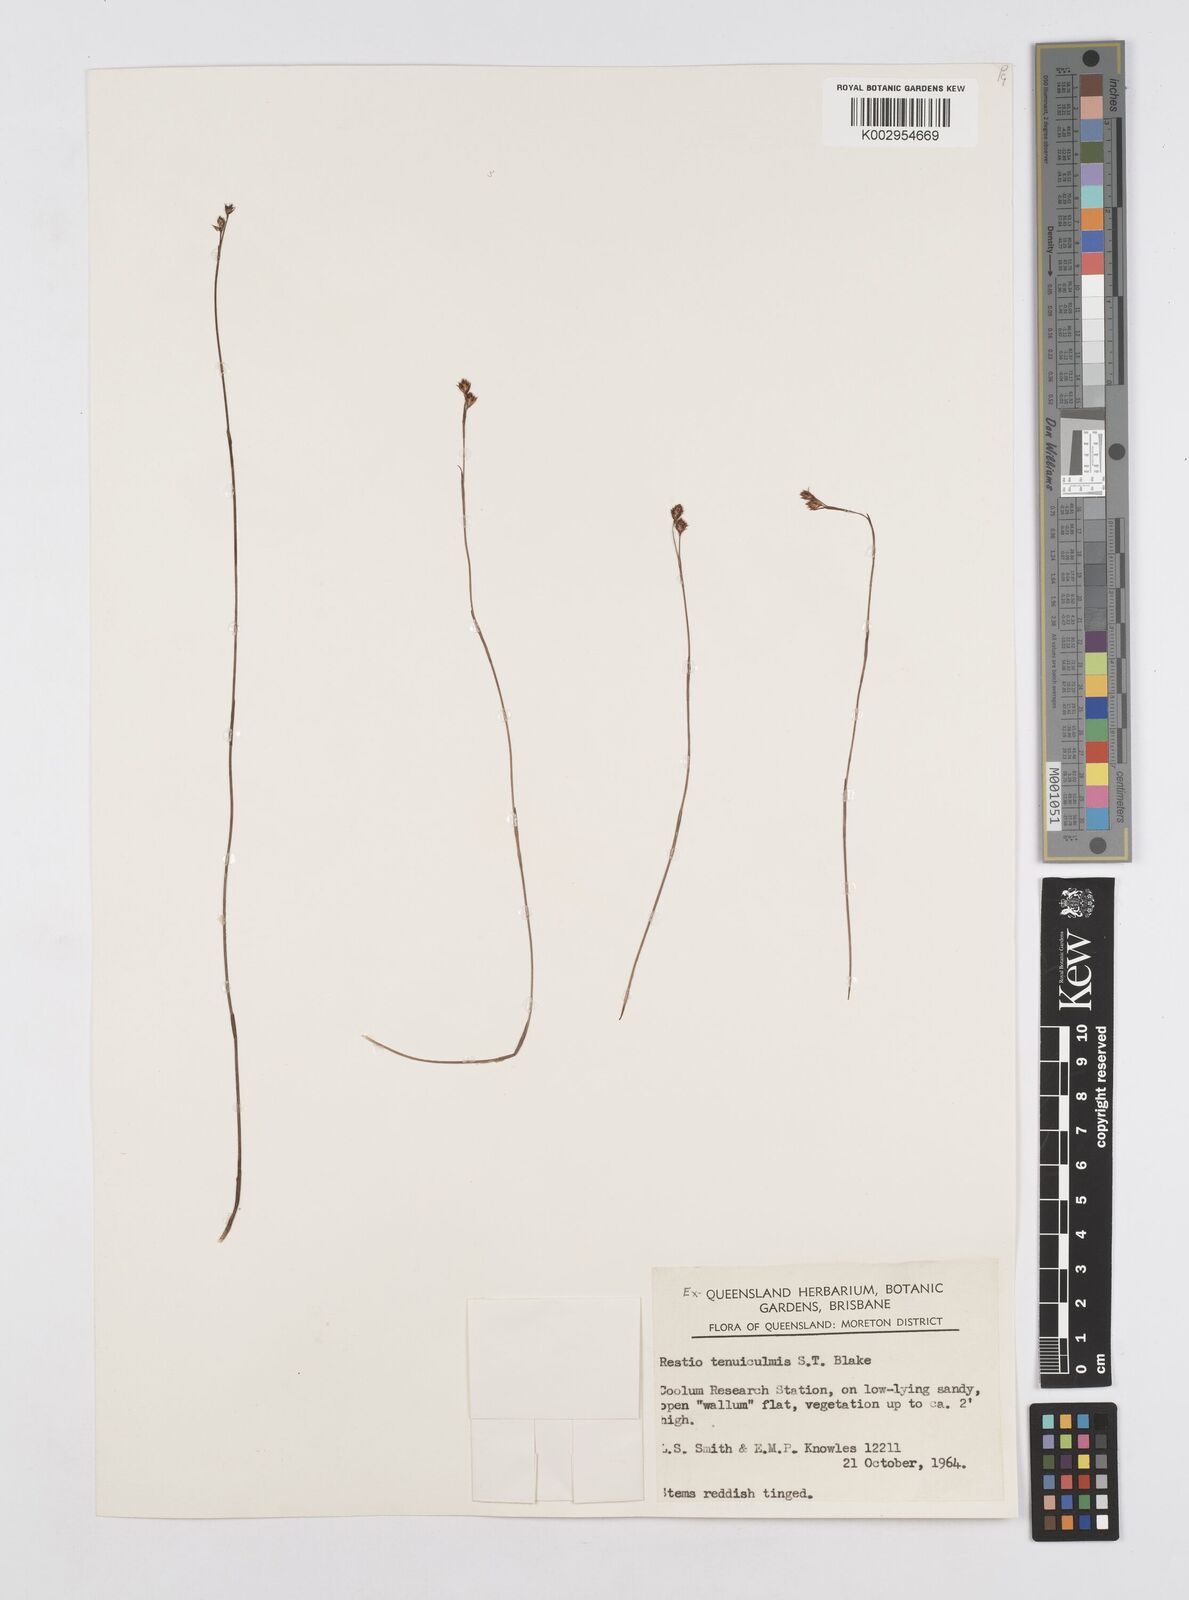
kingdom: Plantae
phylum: Tracheophyta
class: Liliopsida
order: Poales
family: Restionaceae
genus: Baloskion
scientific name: Baloskion tenuiculme
